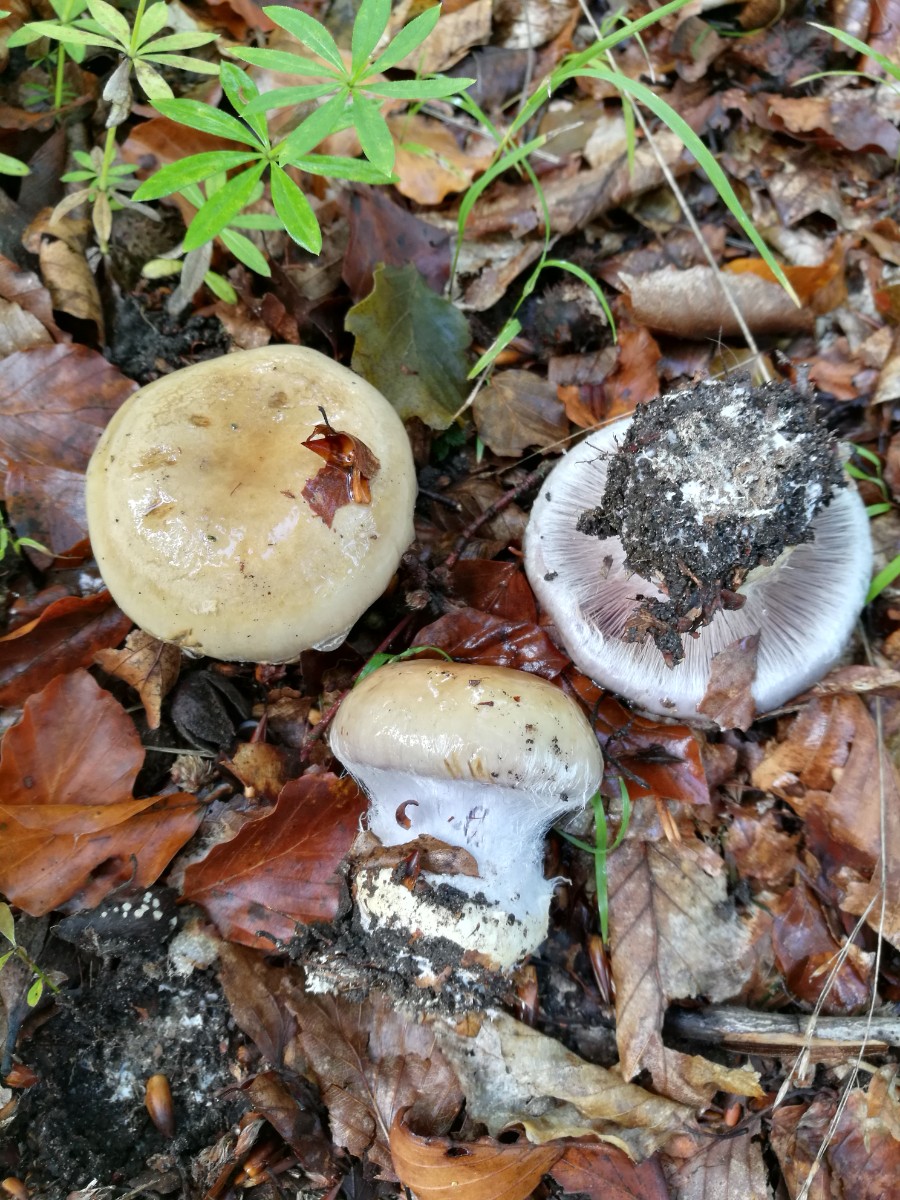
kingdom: Fungi
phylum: Basidiomycota
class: Agaricomycetes
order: Agaricales
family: Cortinariaceae
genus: Cortinarius
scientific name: Cortinarius anserinus
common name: bøge-slørhat
